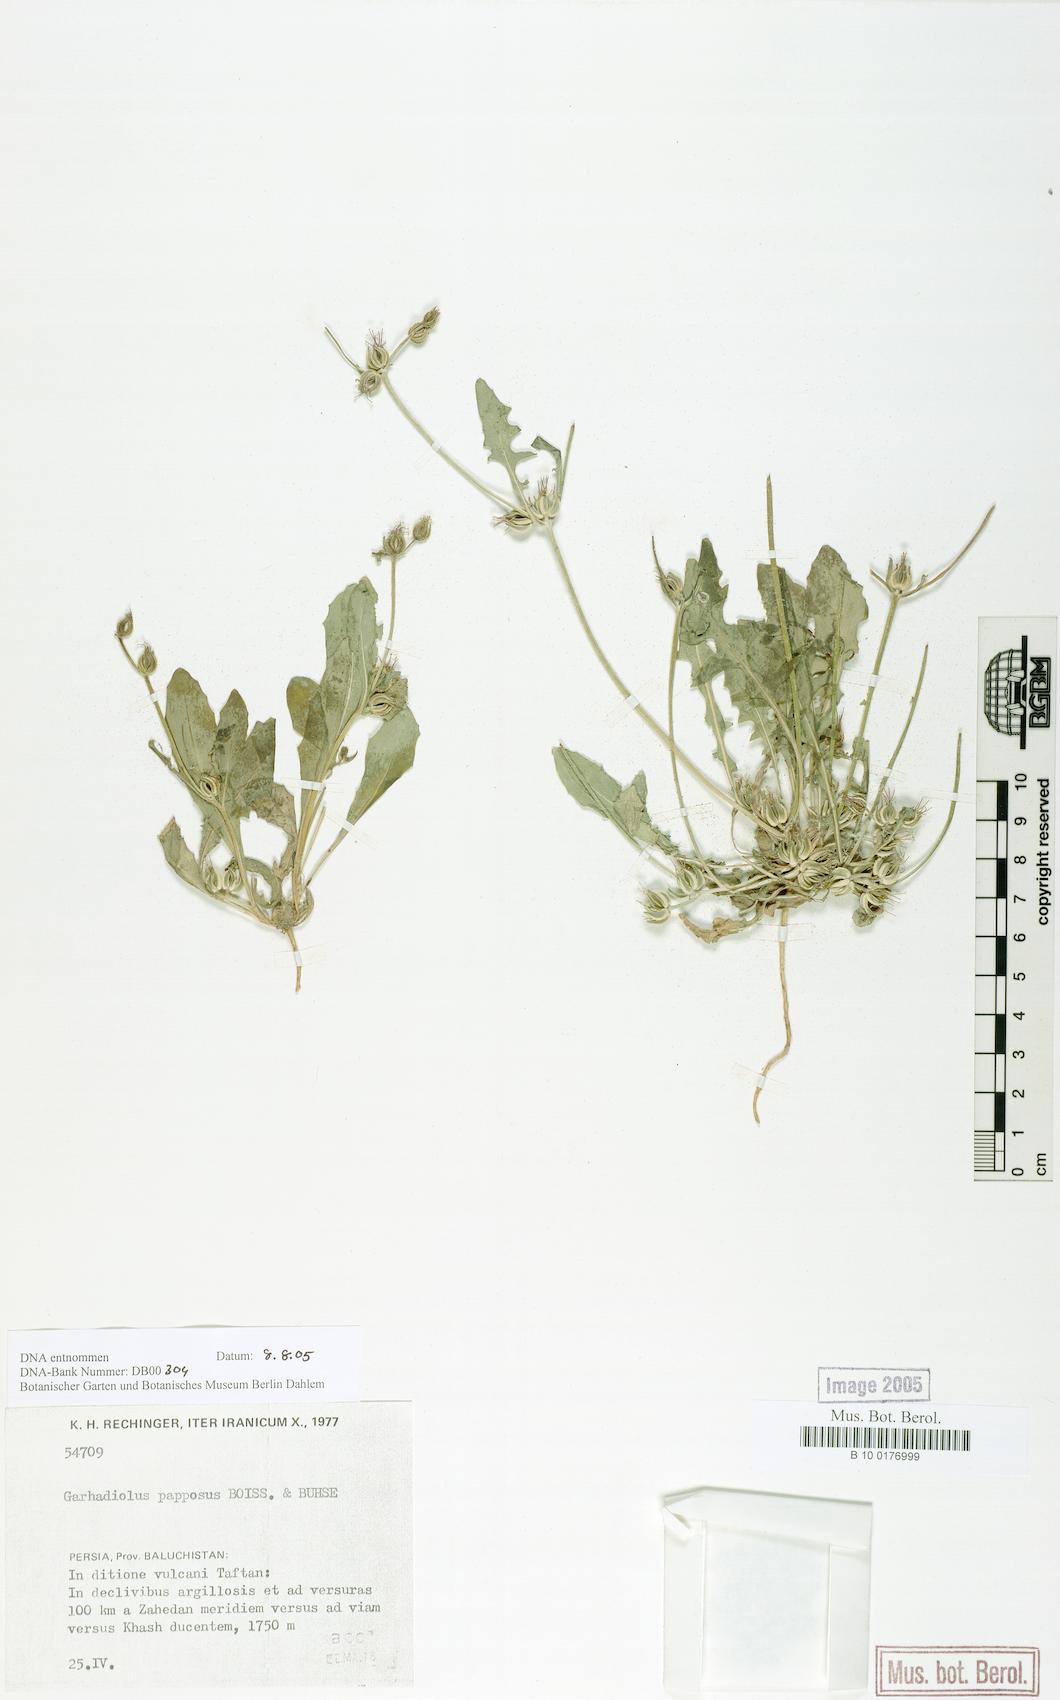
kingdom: Plantae
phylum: Tracheophyta
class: Magnoliopsida
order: Asterales
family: Asteraceae
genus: Garhadiolus
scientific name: Garhadiolus papposus
